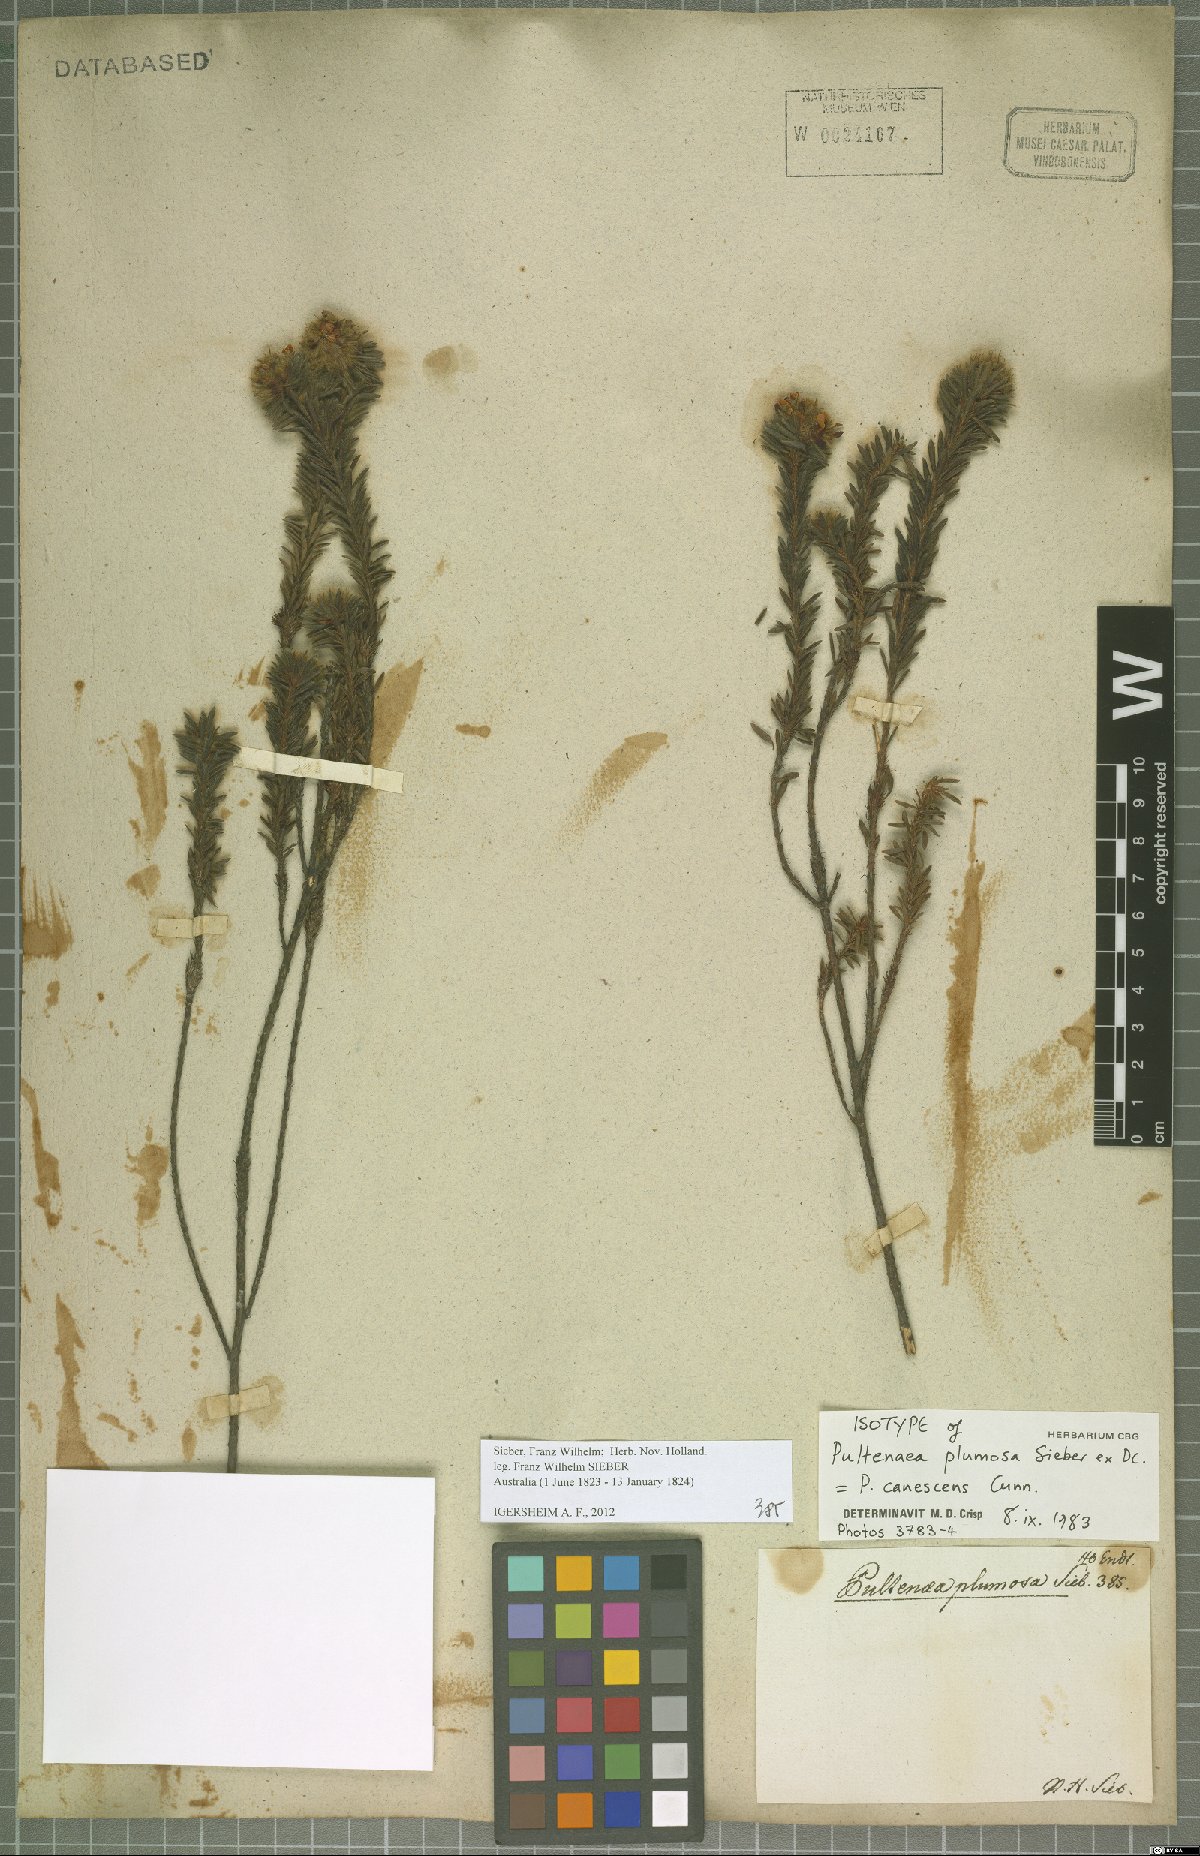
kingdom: Plantae
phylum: Tracheophyta
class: Magnoliopsida
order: Fabales
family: Fabaceae
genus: Pultenaea
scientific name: Pultenaea canescens
